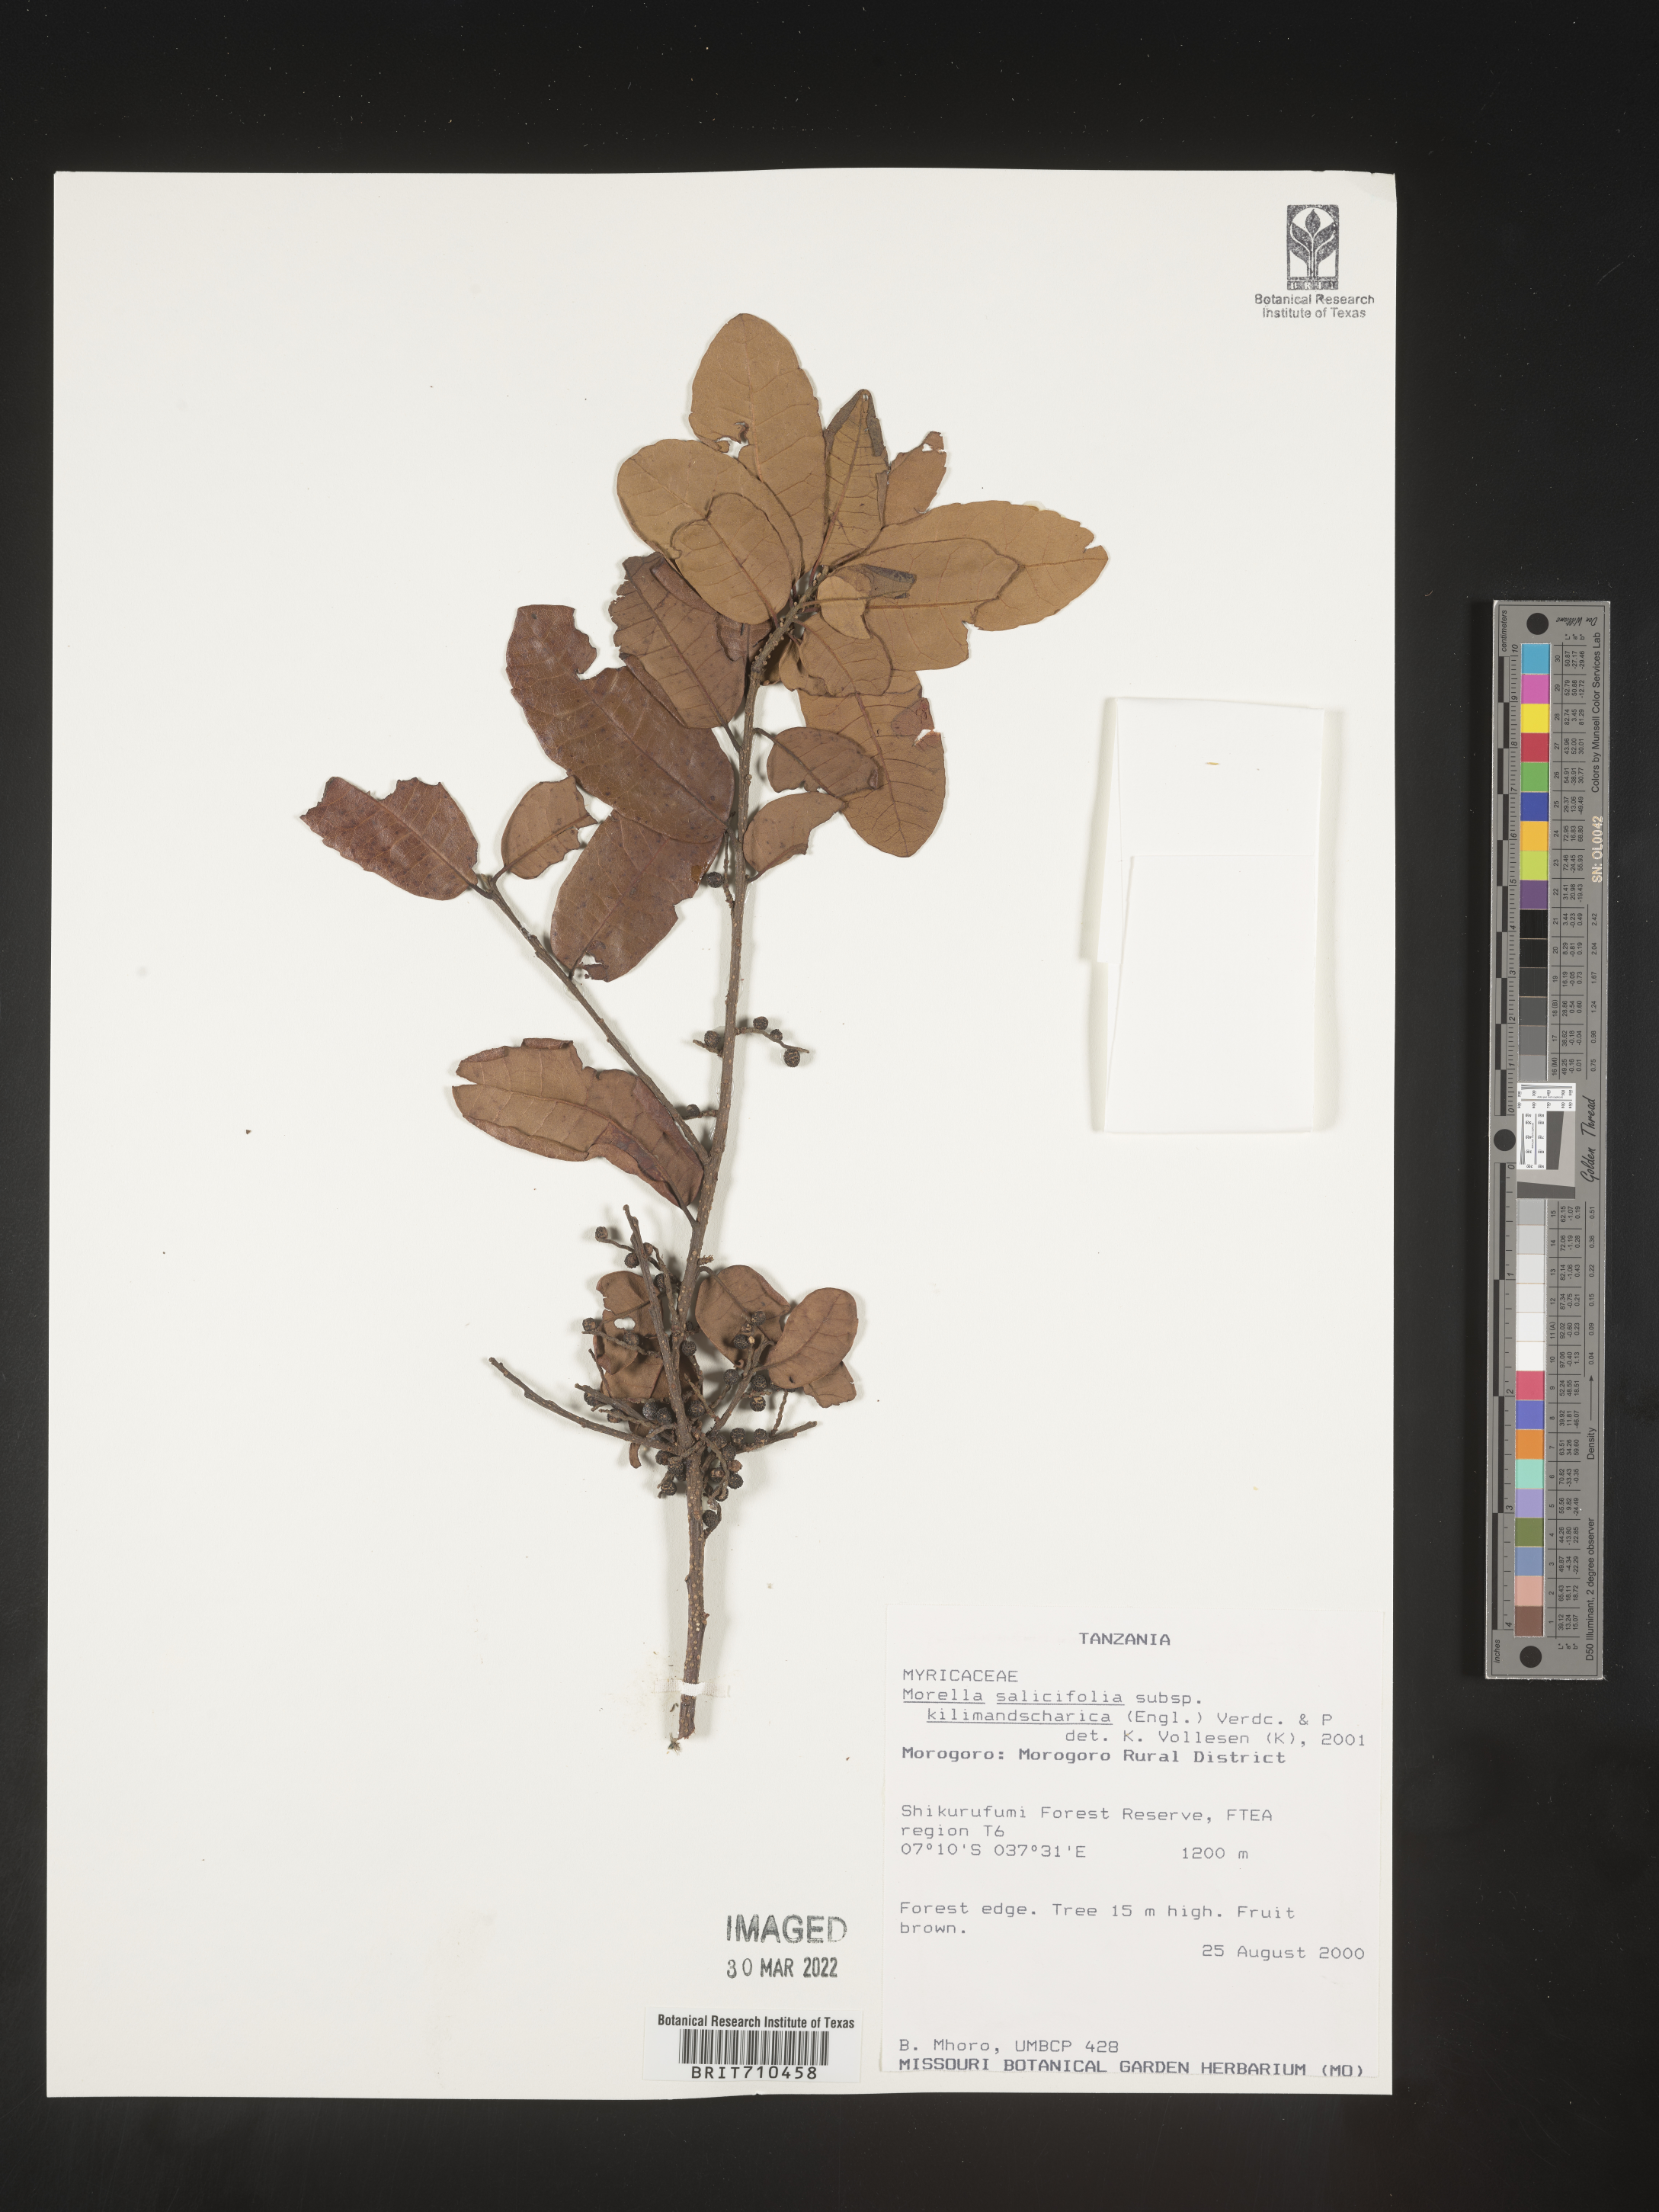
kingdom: Plantae
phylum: Tracheophyta
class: Magnoliopsida
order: Fagales
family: Myricaceae
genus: Morella
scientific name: Morella
